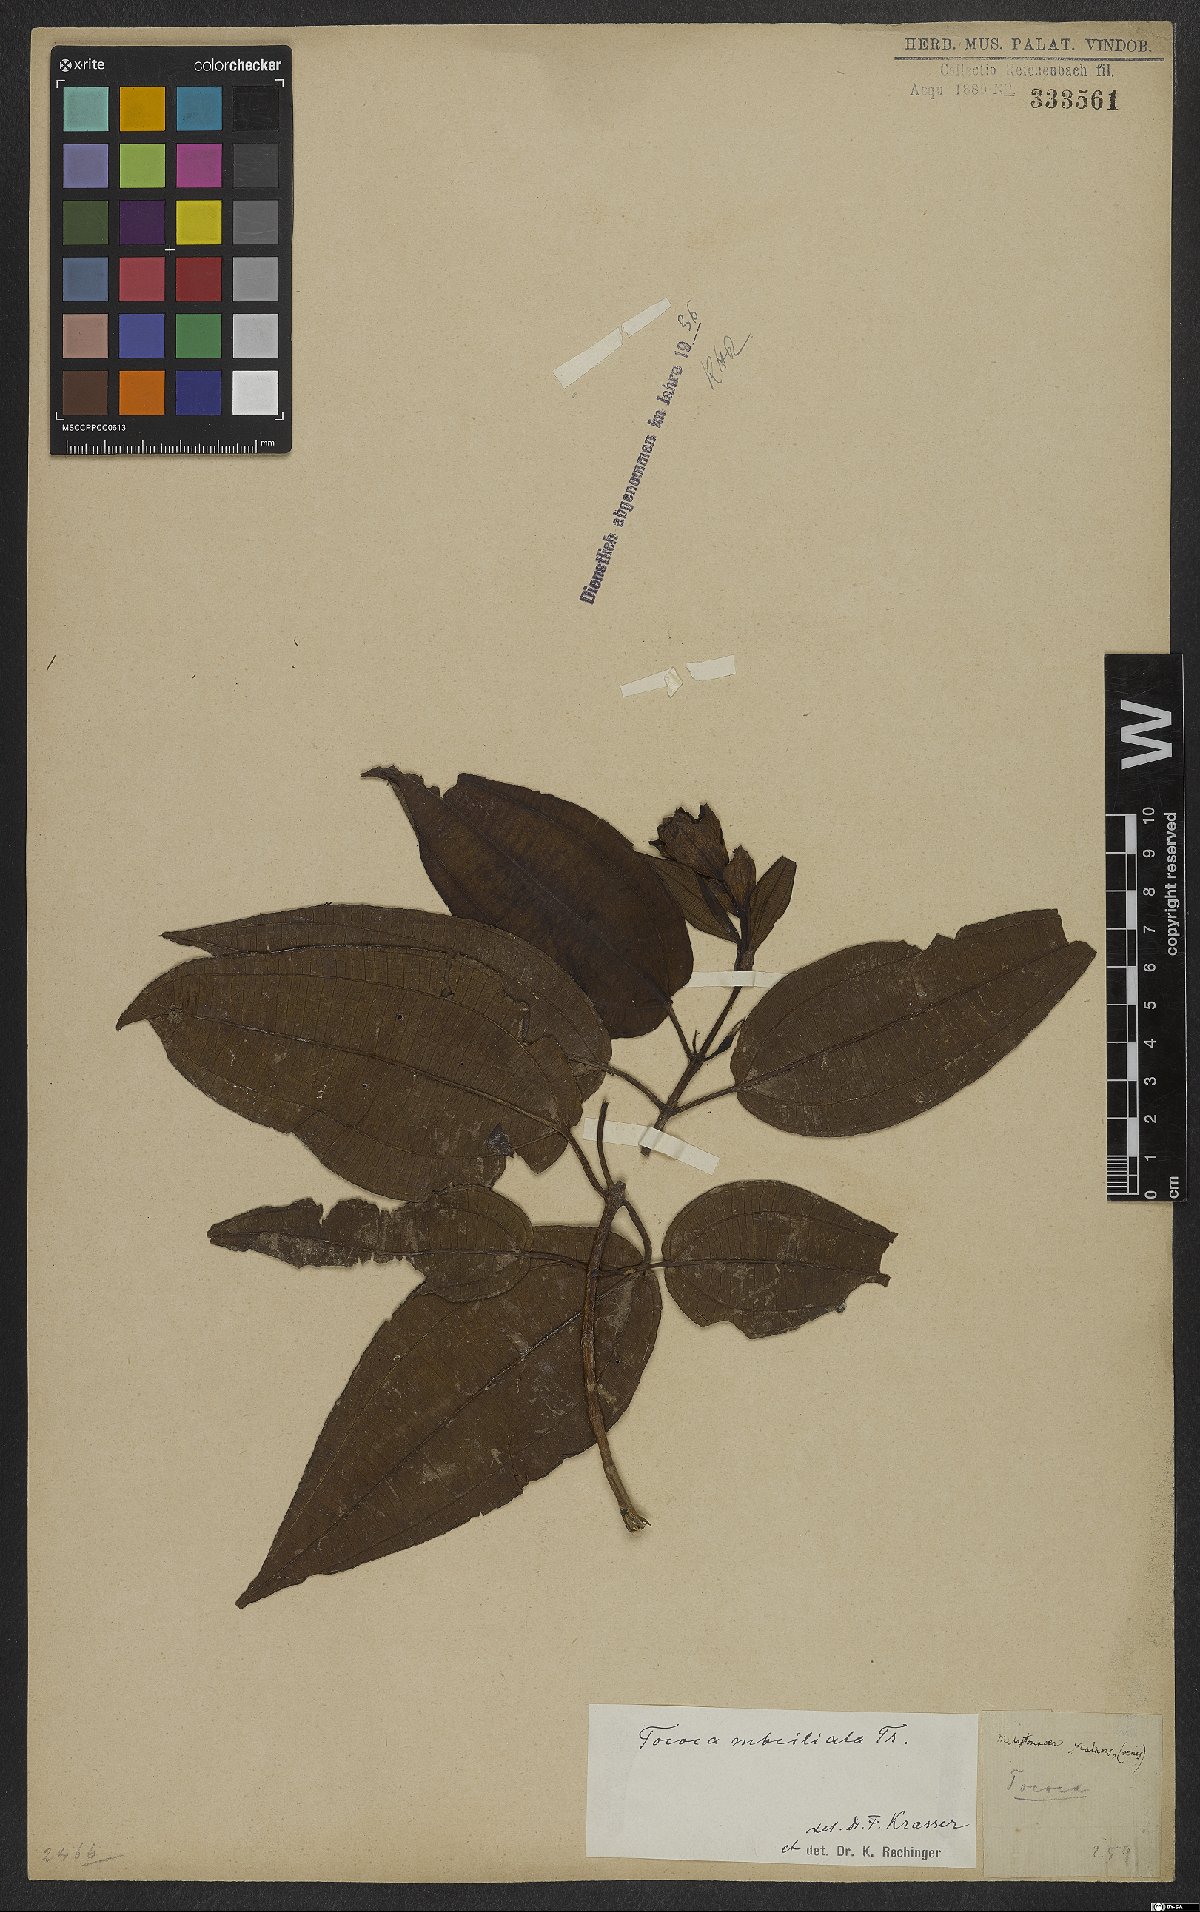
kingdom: Plantae
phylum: Tracheophyta
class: Magnoliopsida
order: Myrtales
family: Melastomataceae
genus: Miconia
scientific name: Miconia subciliata
